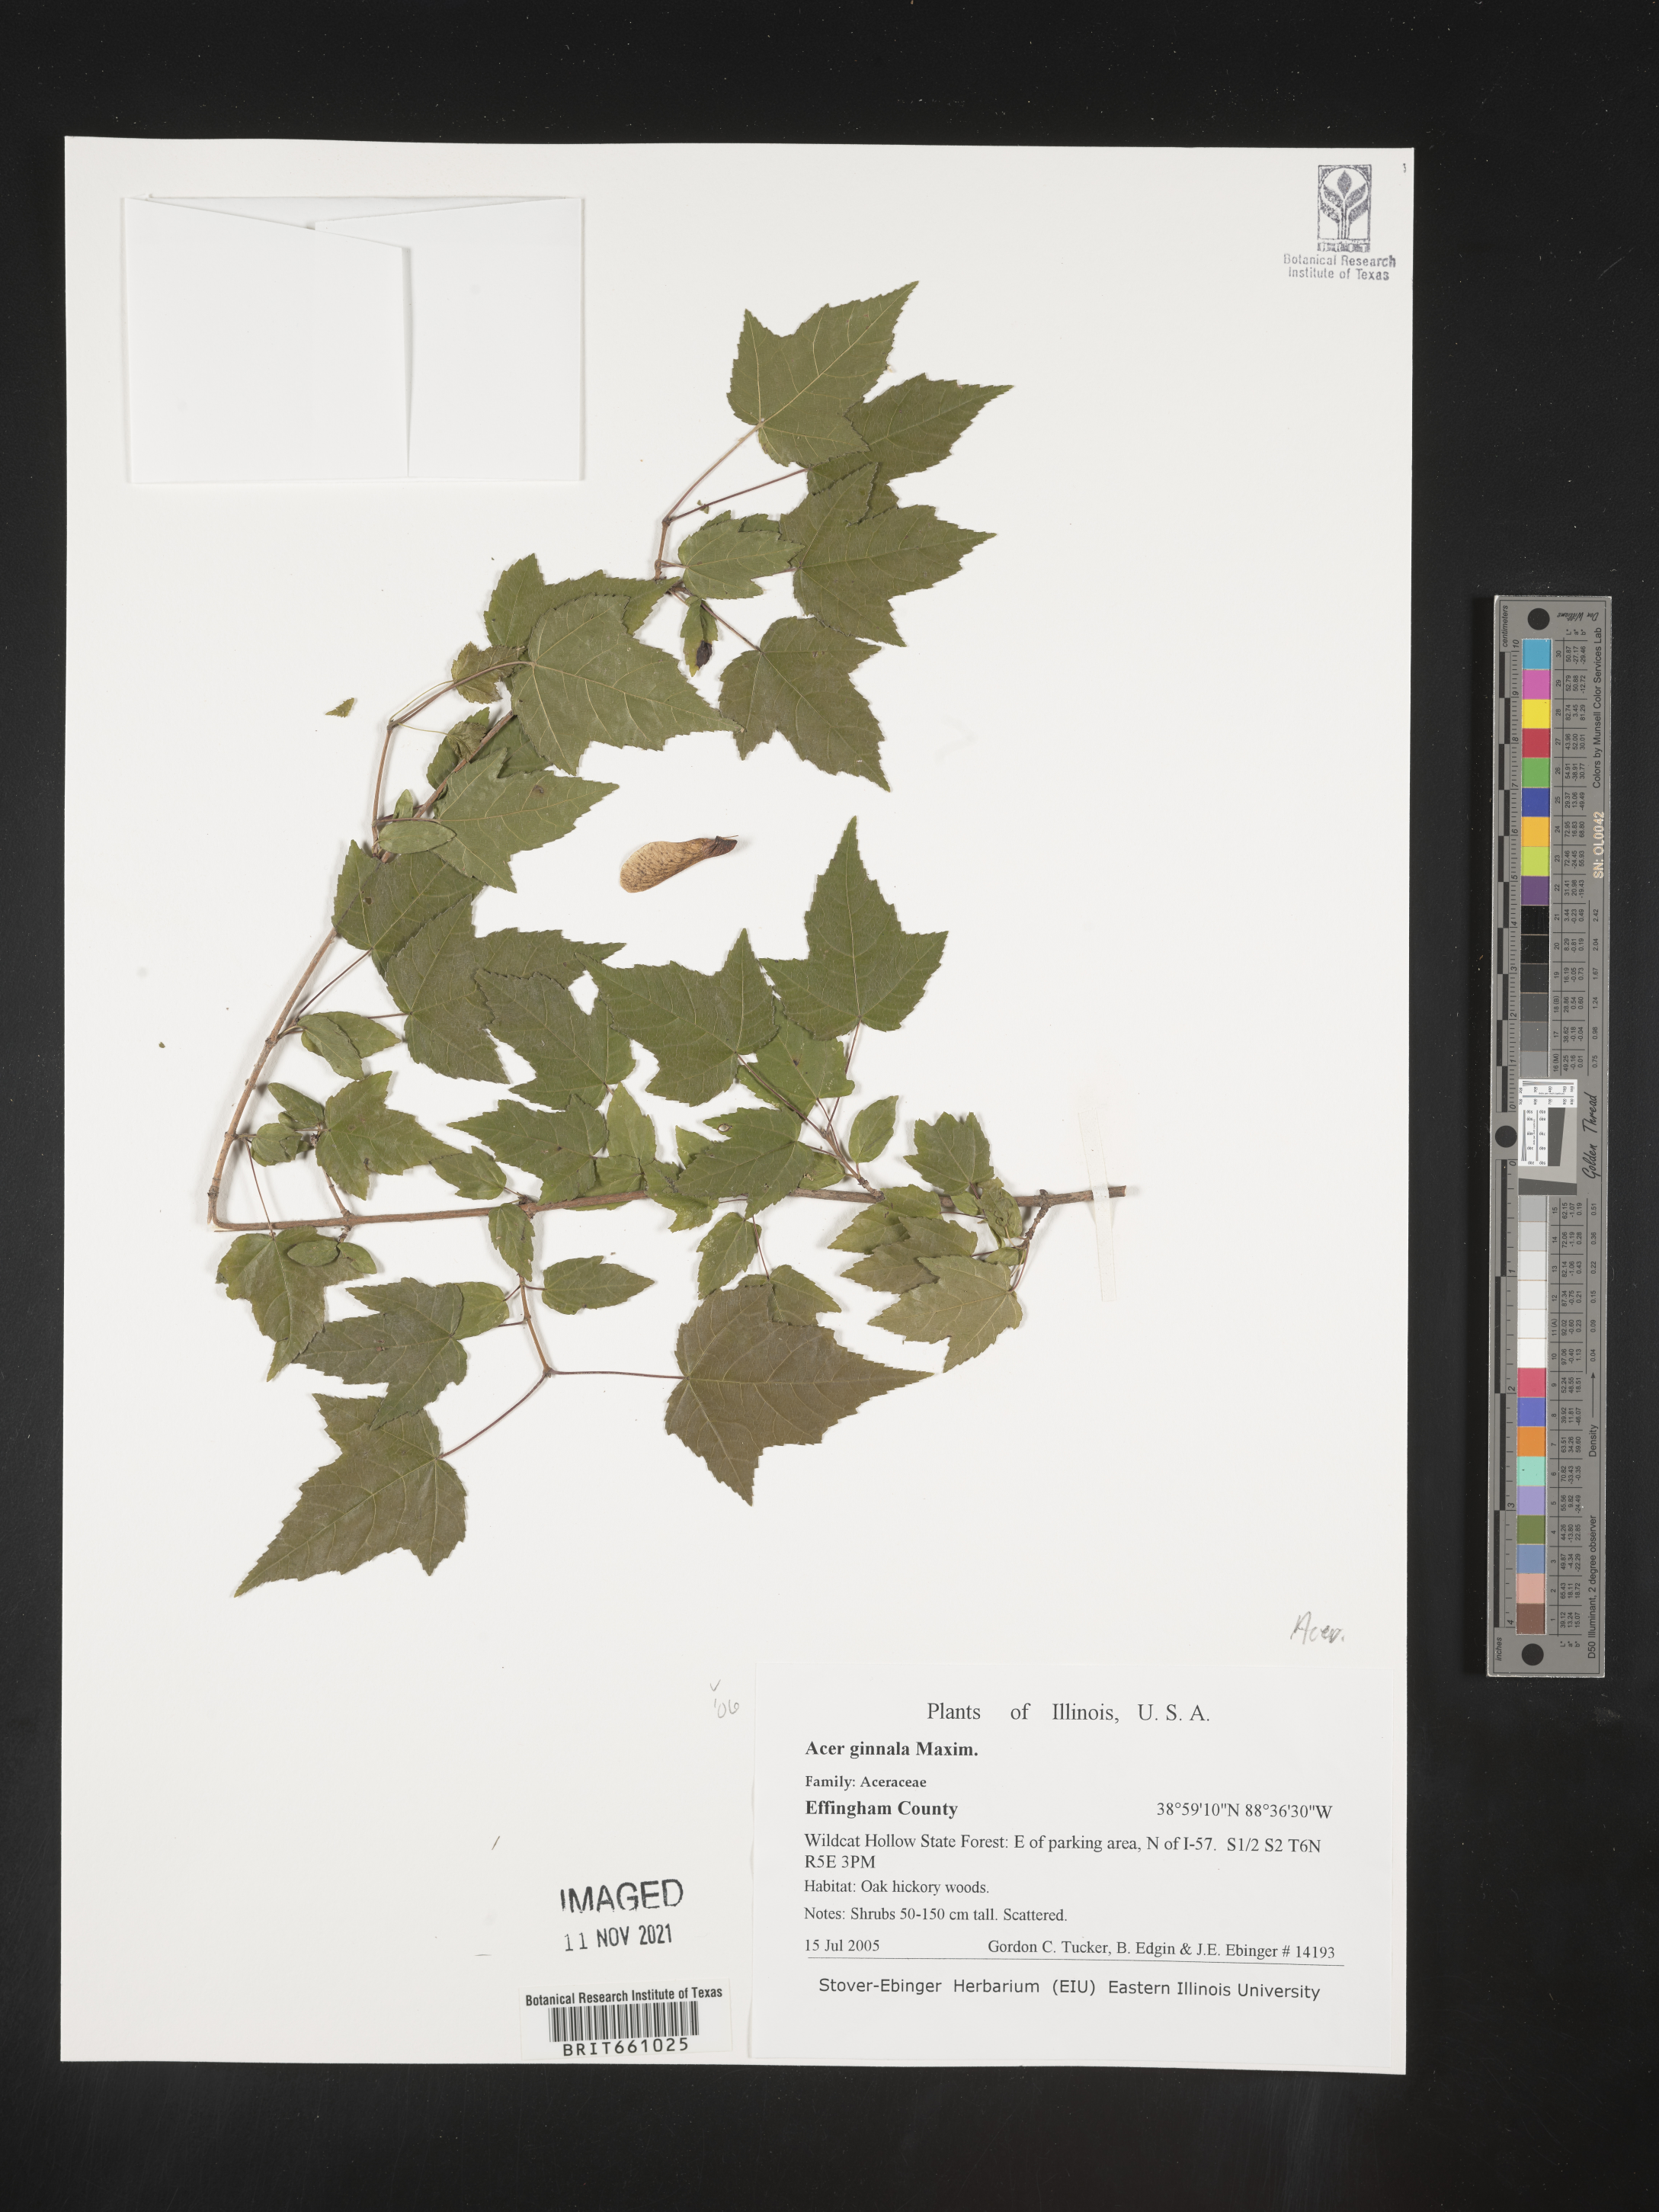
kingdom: Plantae
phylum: Tracheophyta
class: Magnoliopsida
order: Sapindales
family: Sapindaceae
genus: Acer
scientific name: Acer
